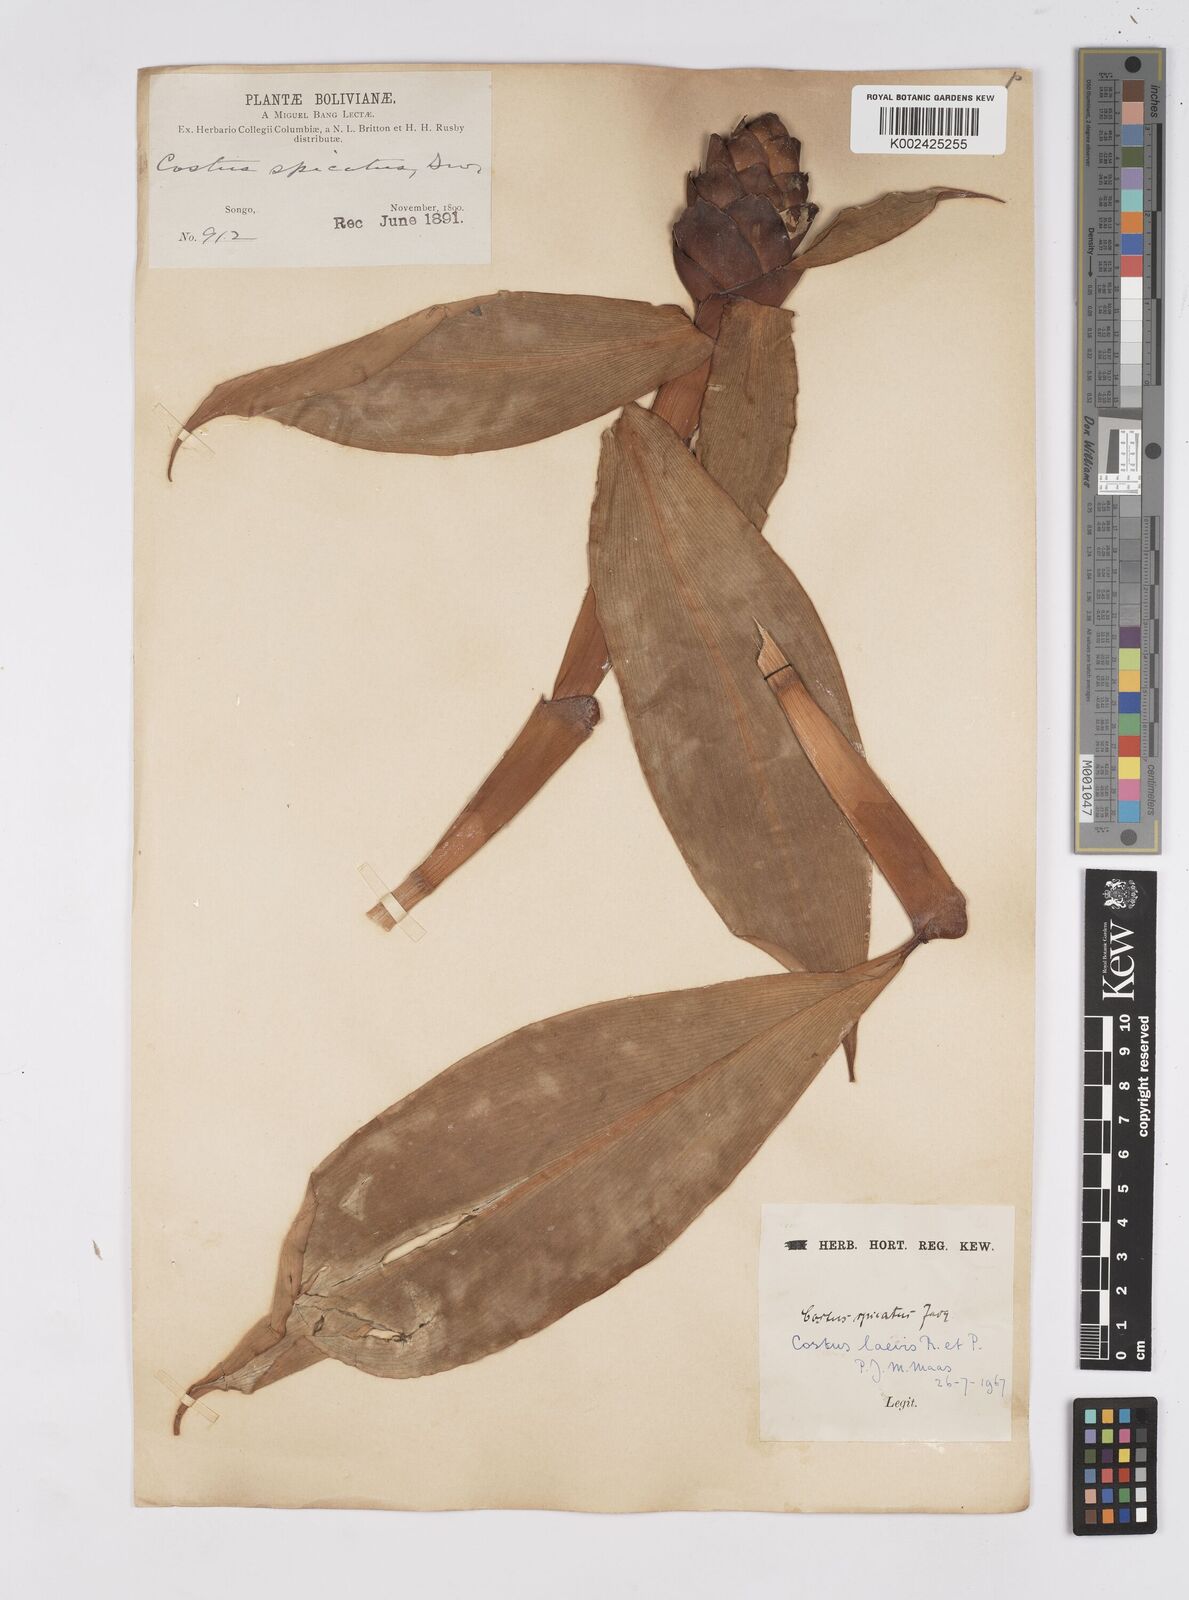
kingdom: Plantae
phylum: Tracheophyta
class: Liliopsida
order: Zingiberales
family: Costaceae
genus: Costus
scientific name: Costus laevis
